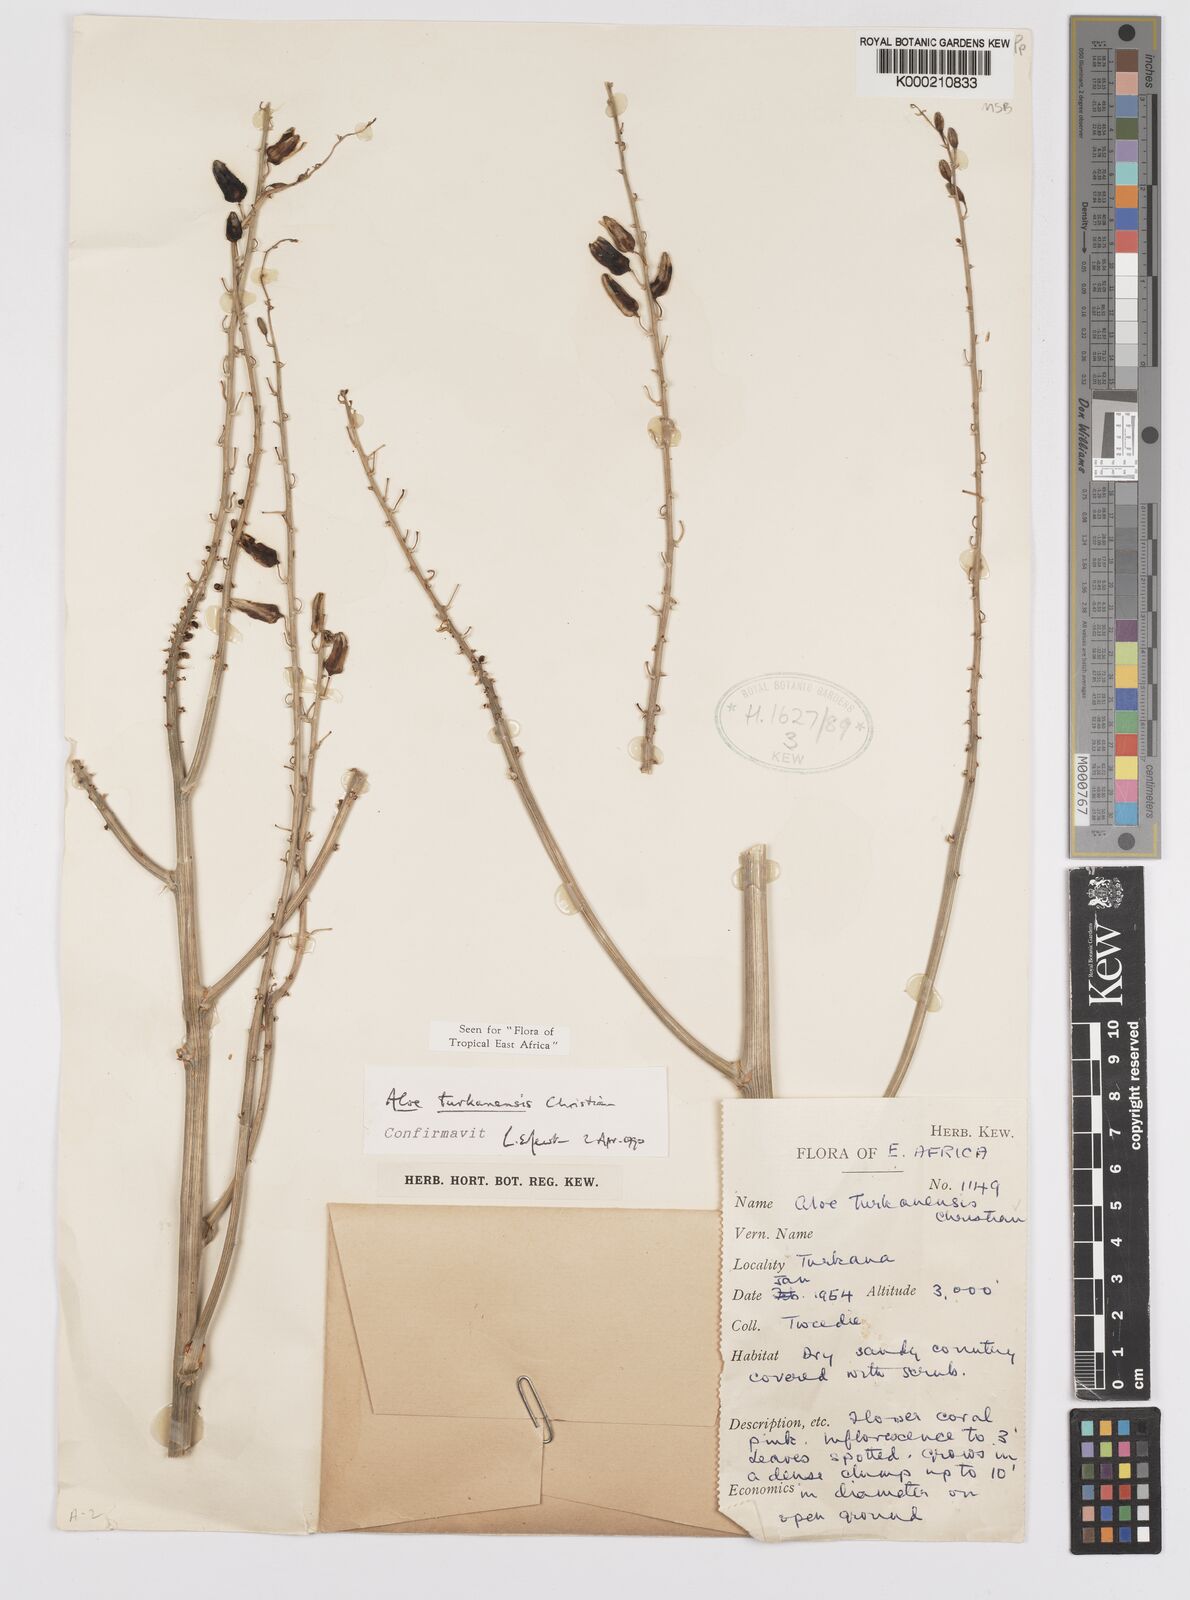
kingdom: Plantae
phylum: Tracheophyta
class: Liliopsida
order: Asparagales
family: Asphodelaceae
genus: Aloe
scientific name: Aloe turkanensis
